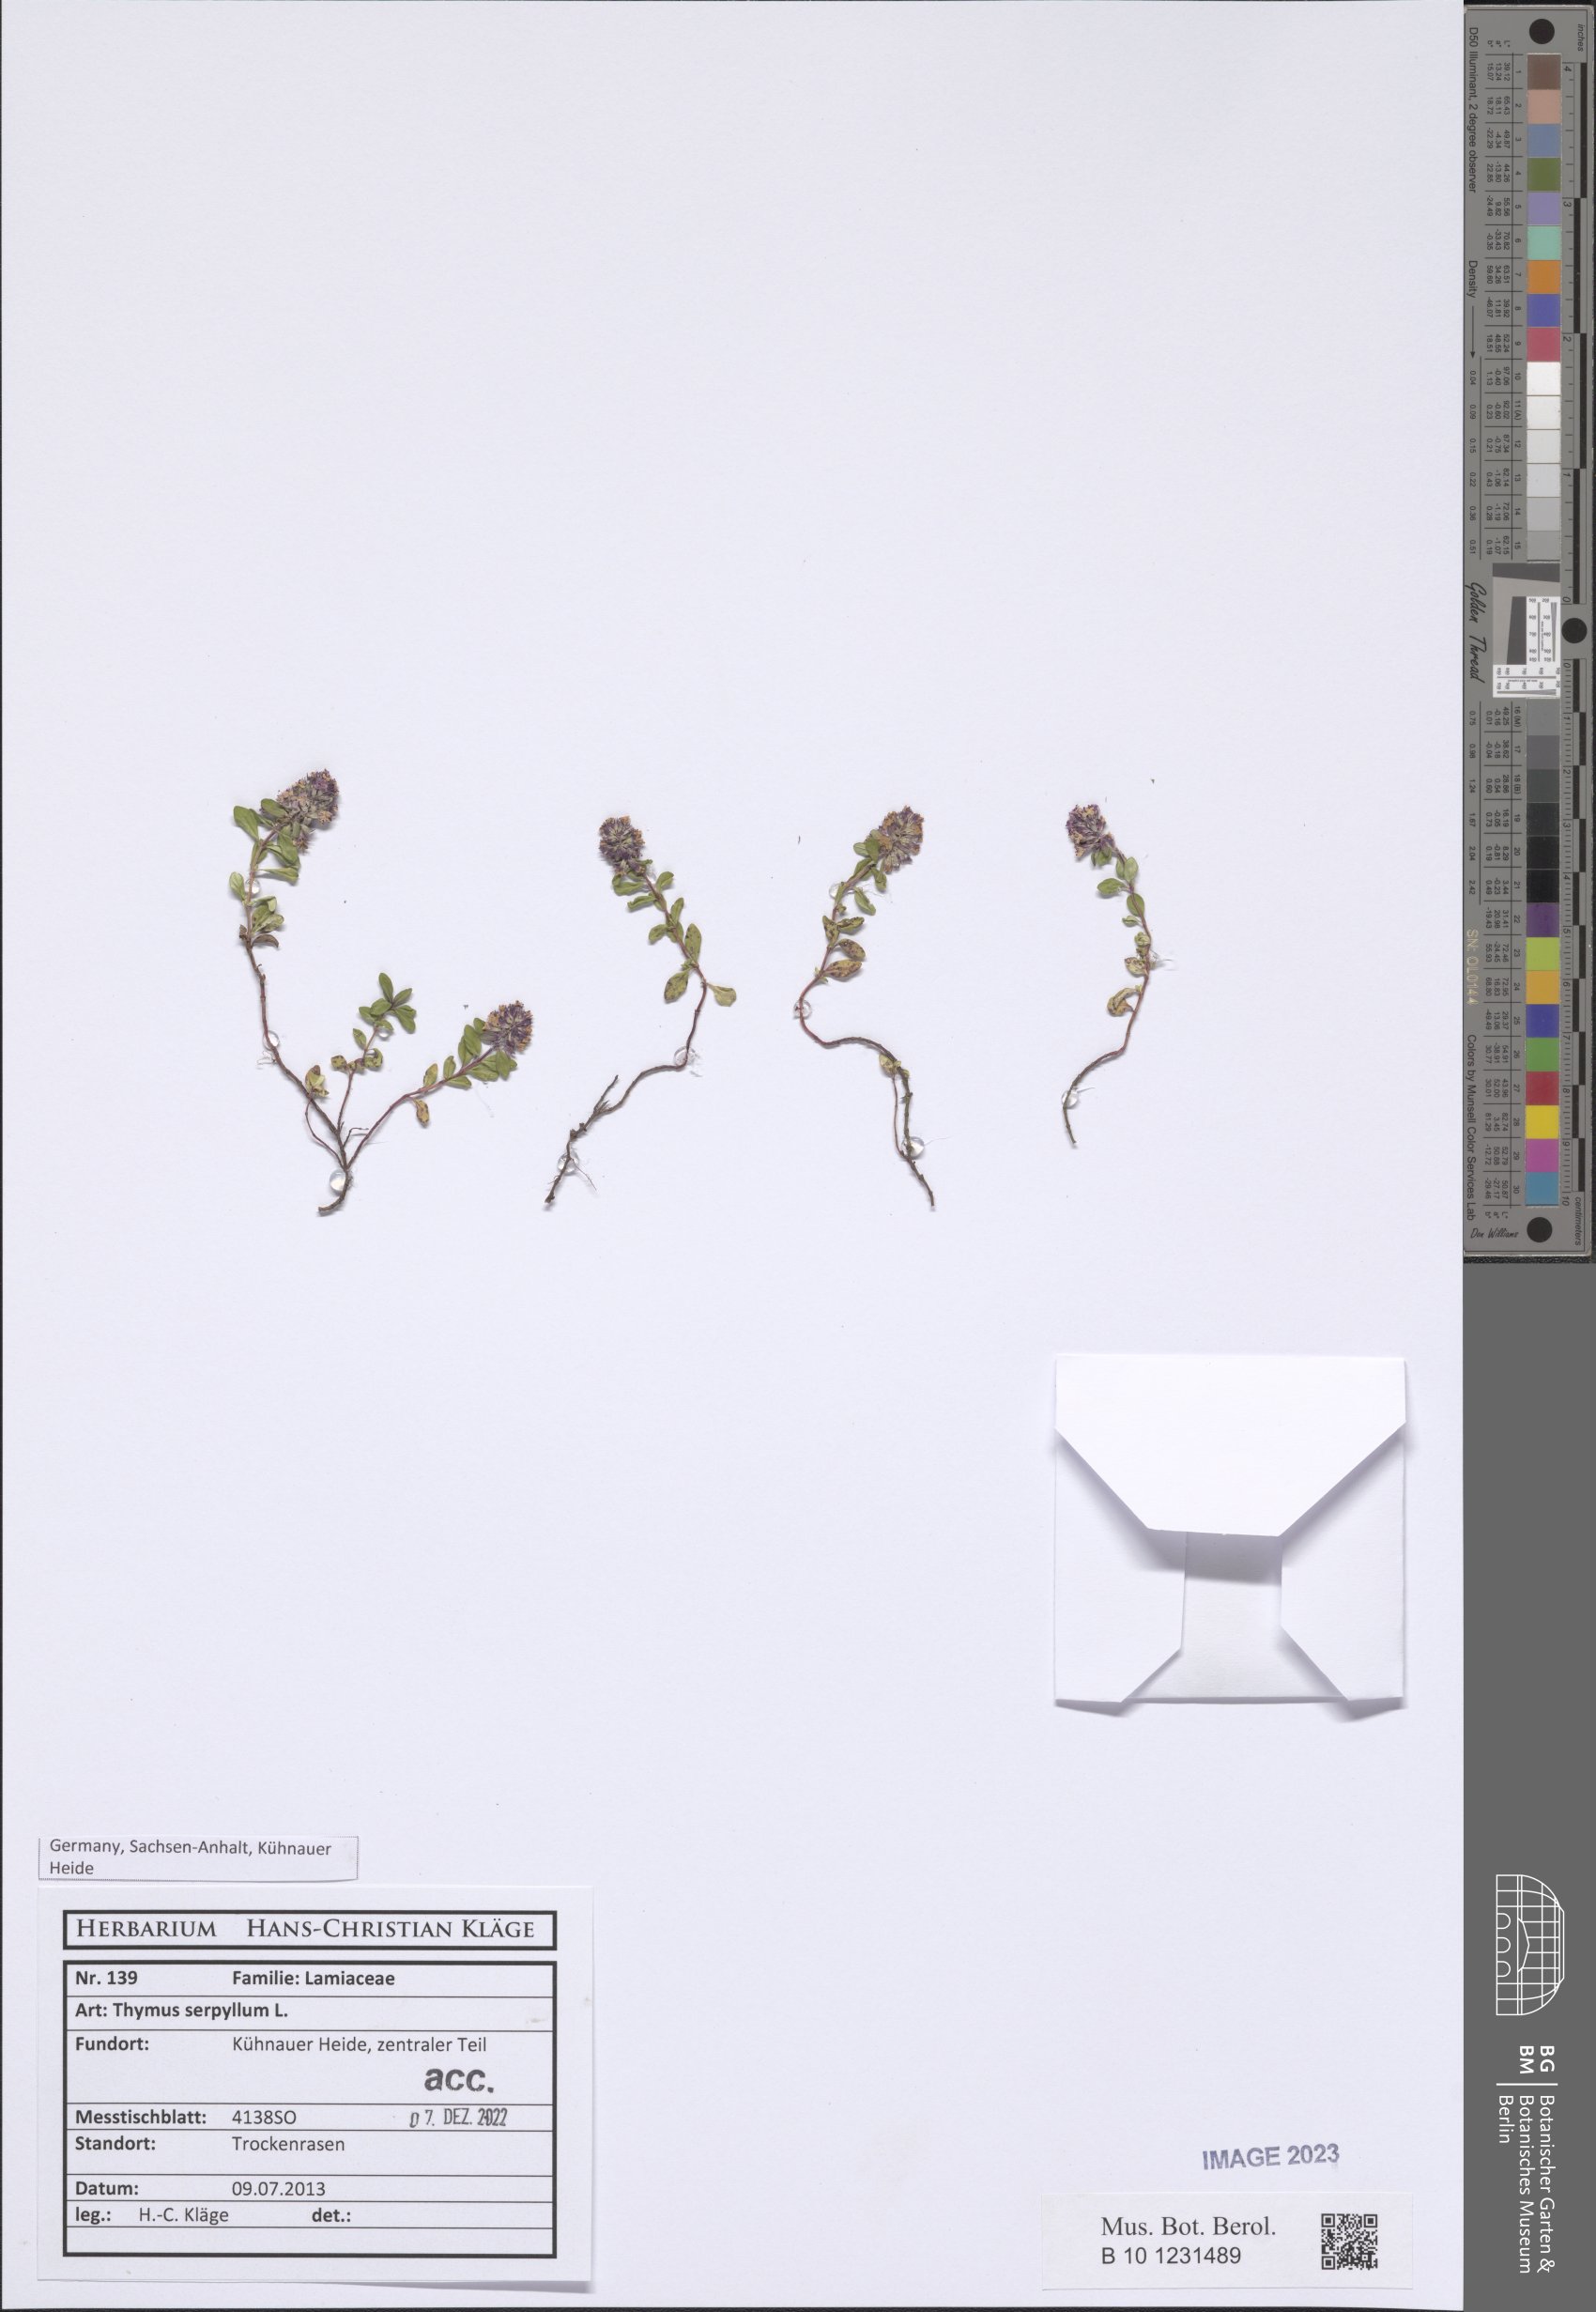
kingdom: Plantae
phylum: Tracheophyta
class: Magnoliopsida
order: Lamiales
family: Lamiaceae
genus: Thymus
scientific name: Thymus serpyllum
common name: Breckland thyme
